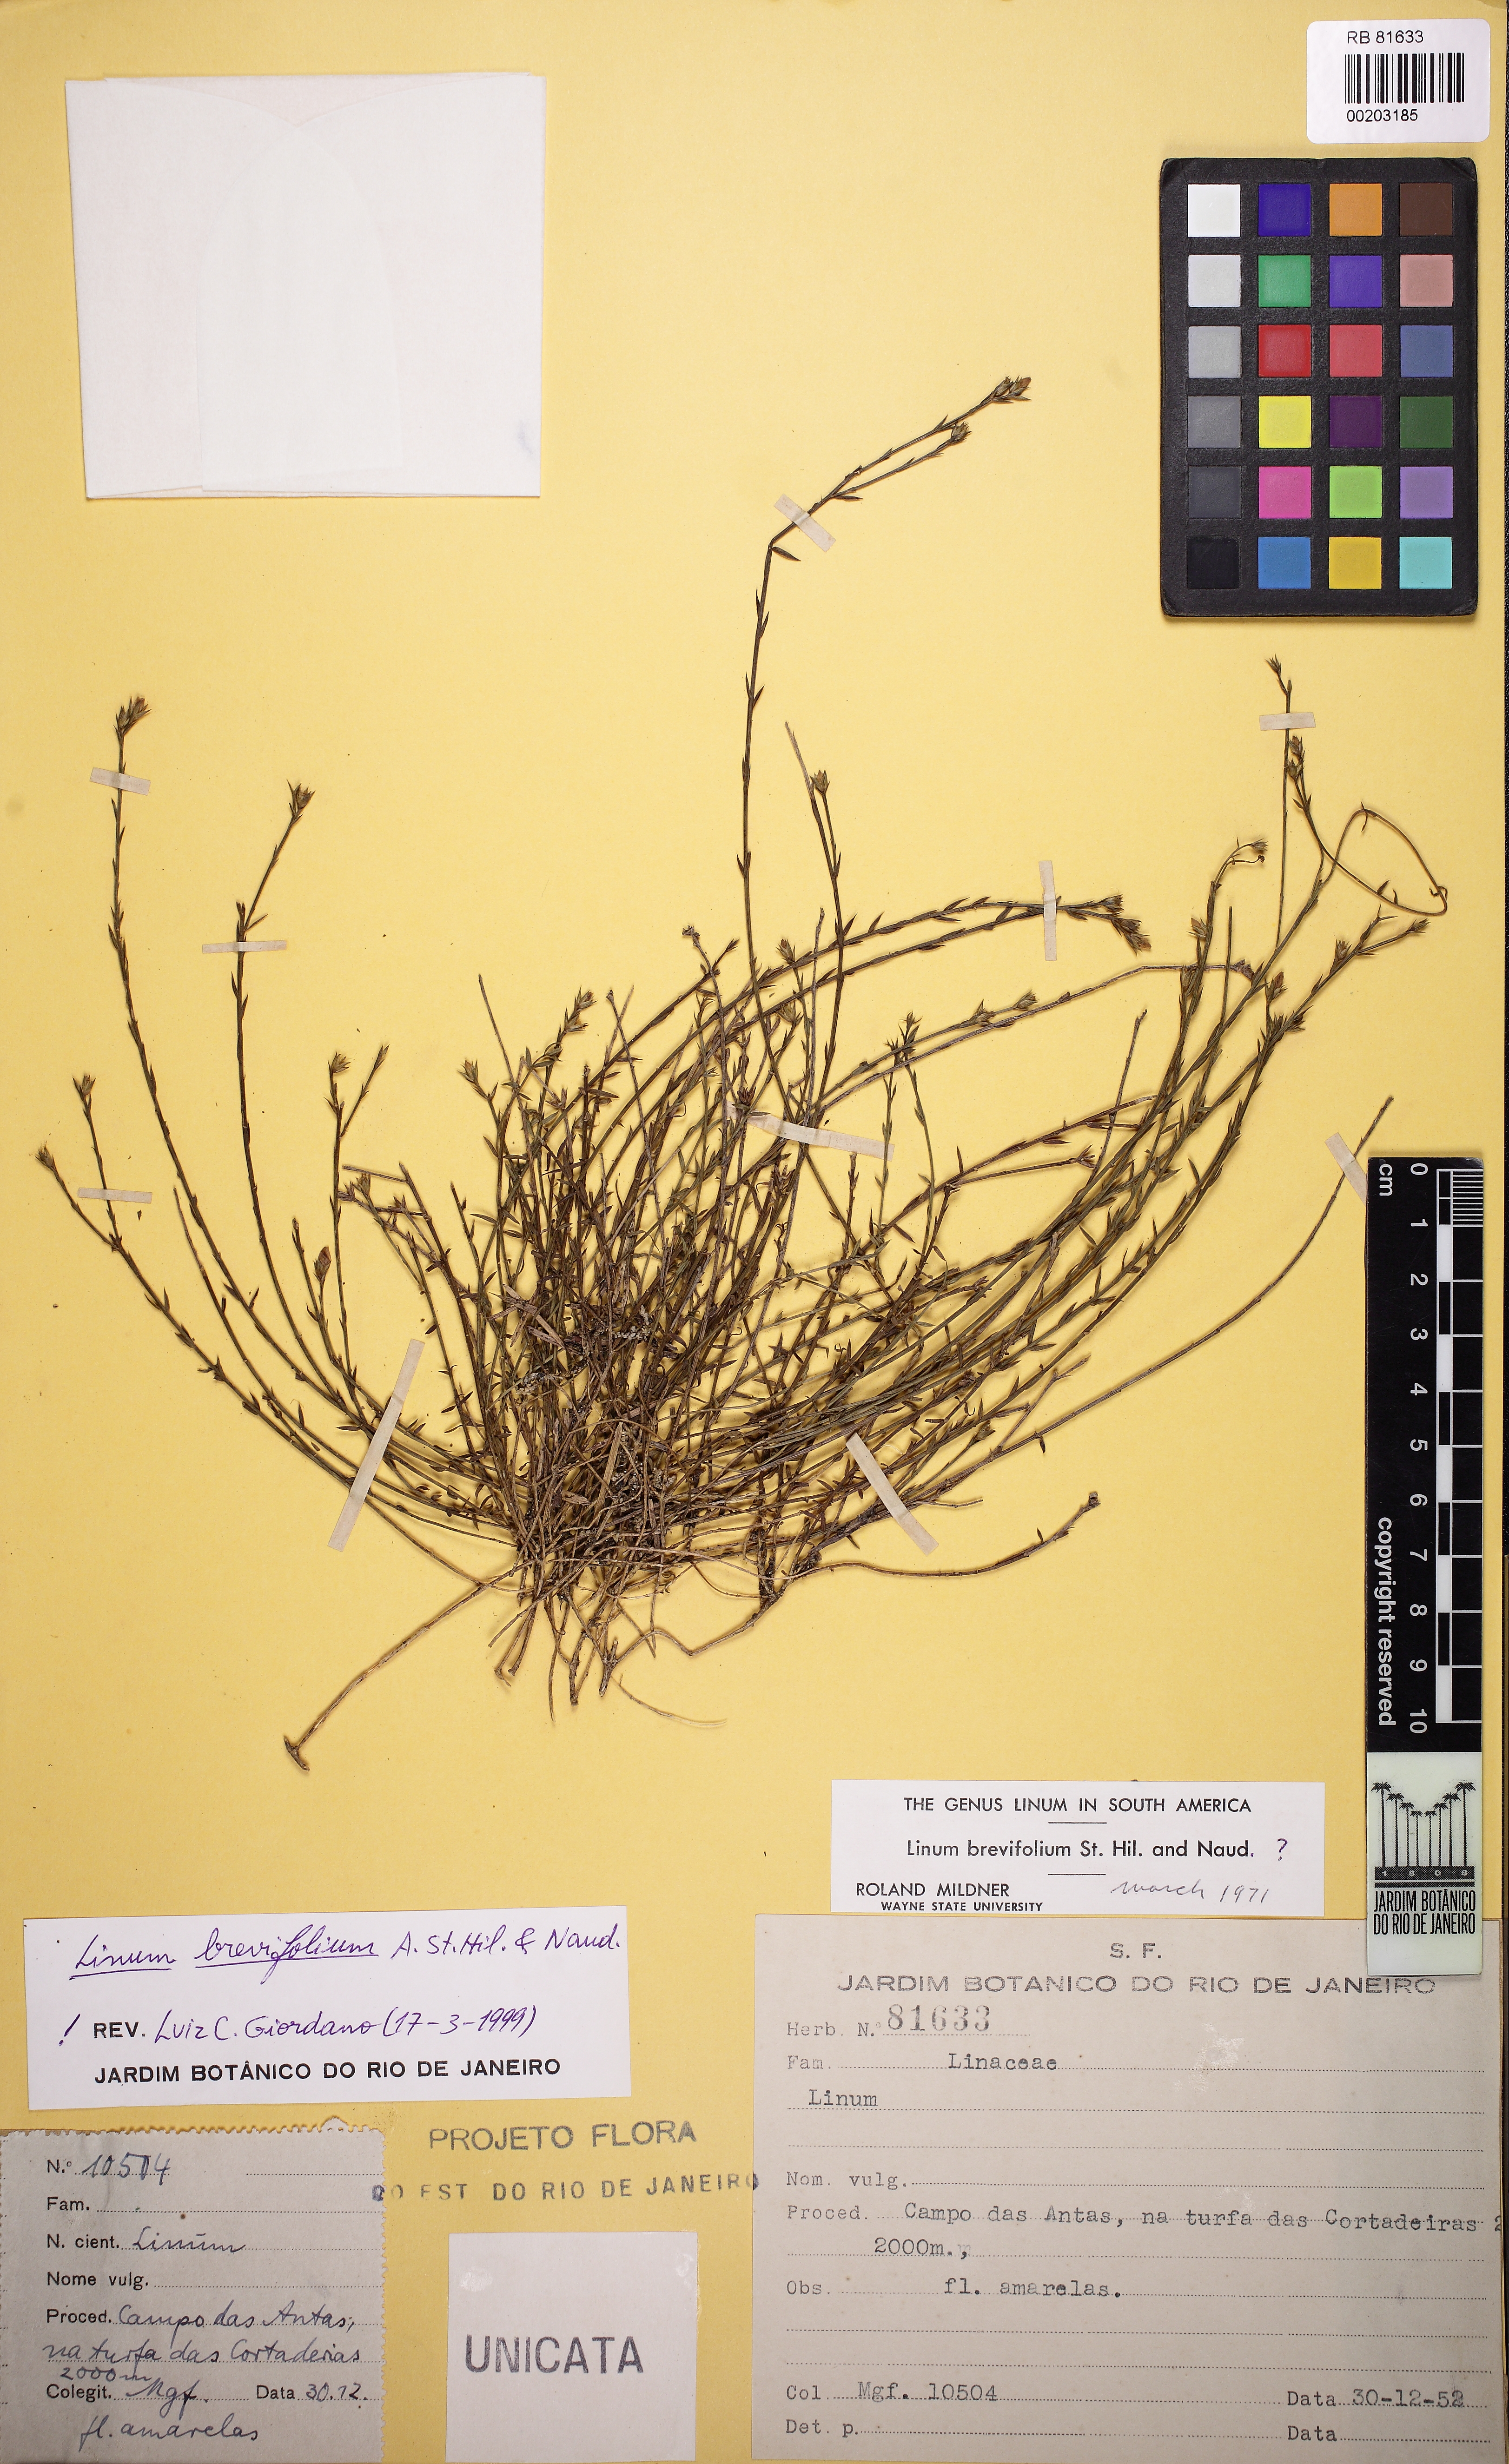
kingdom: Plantae
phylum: Tracheophyta
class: Magnoliopsida
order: Malpighiales
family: Linaceae
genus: Linum
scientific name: Linum brevifolium
